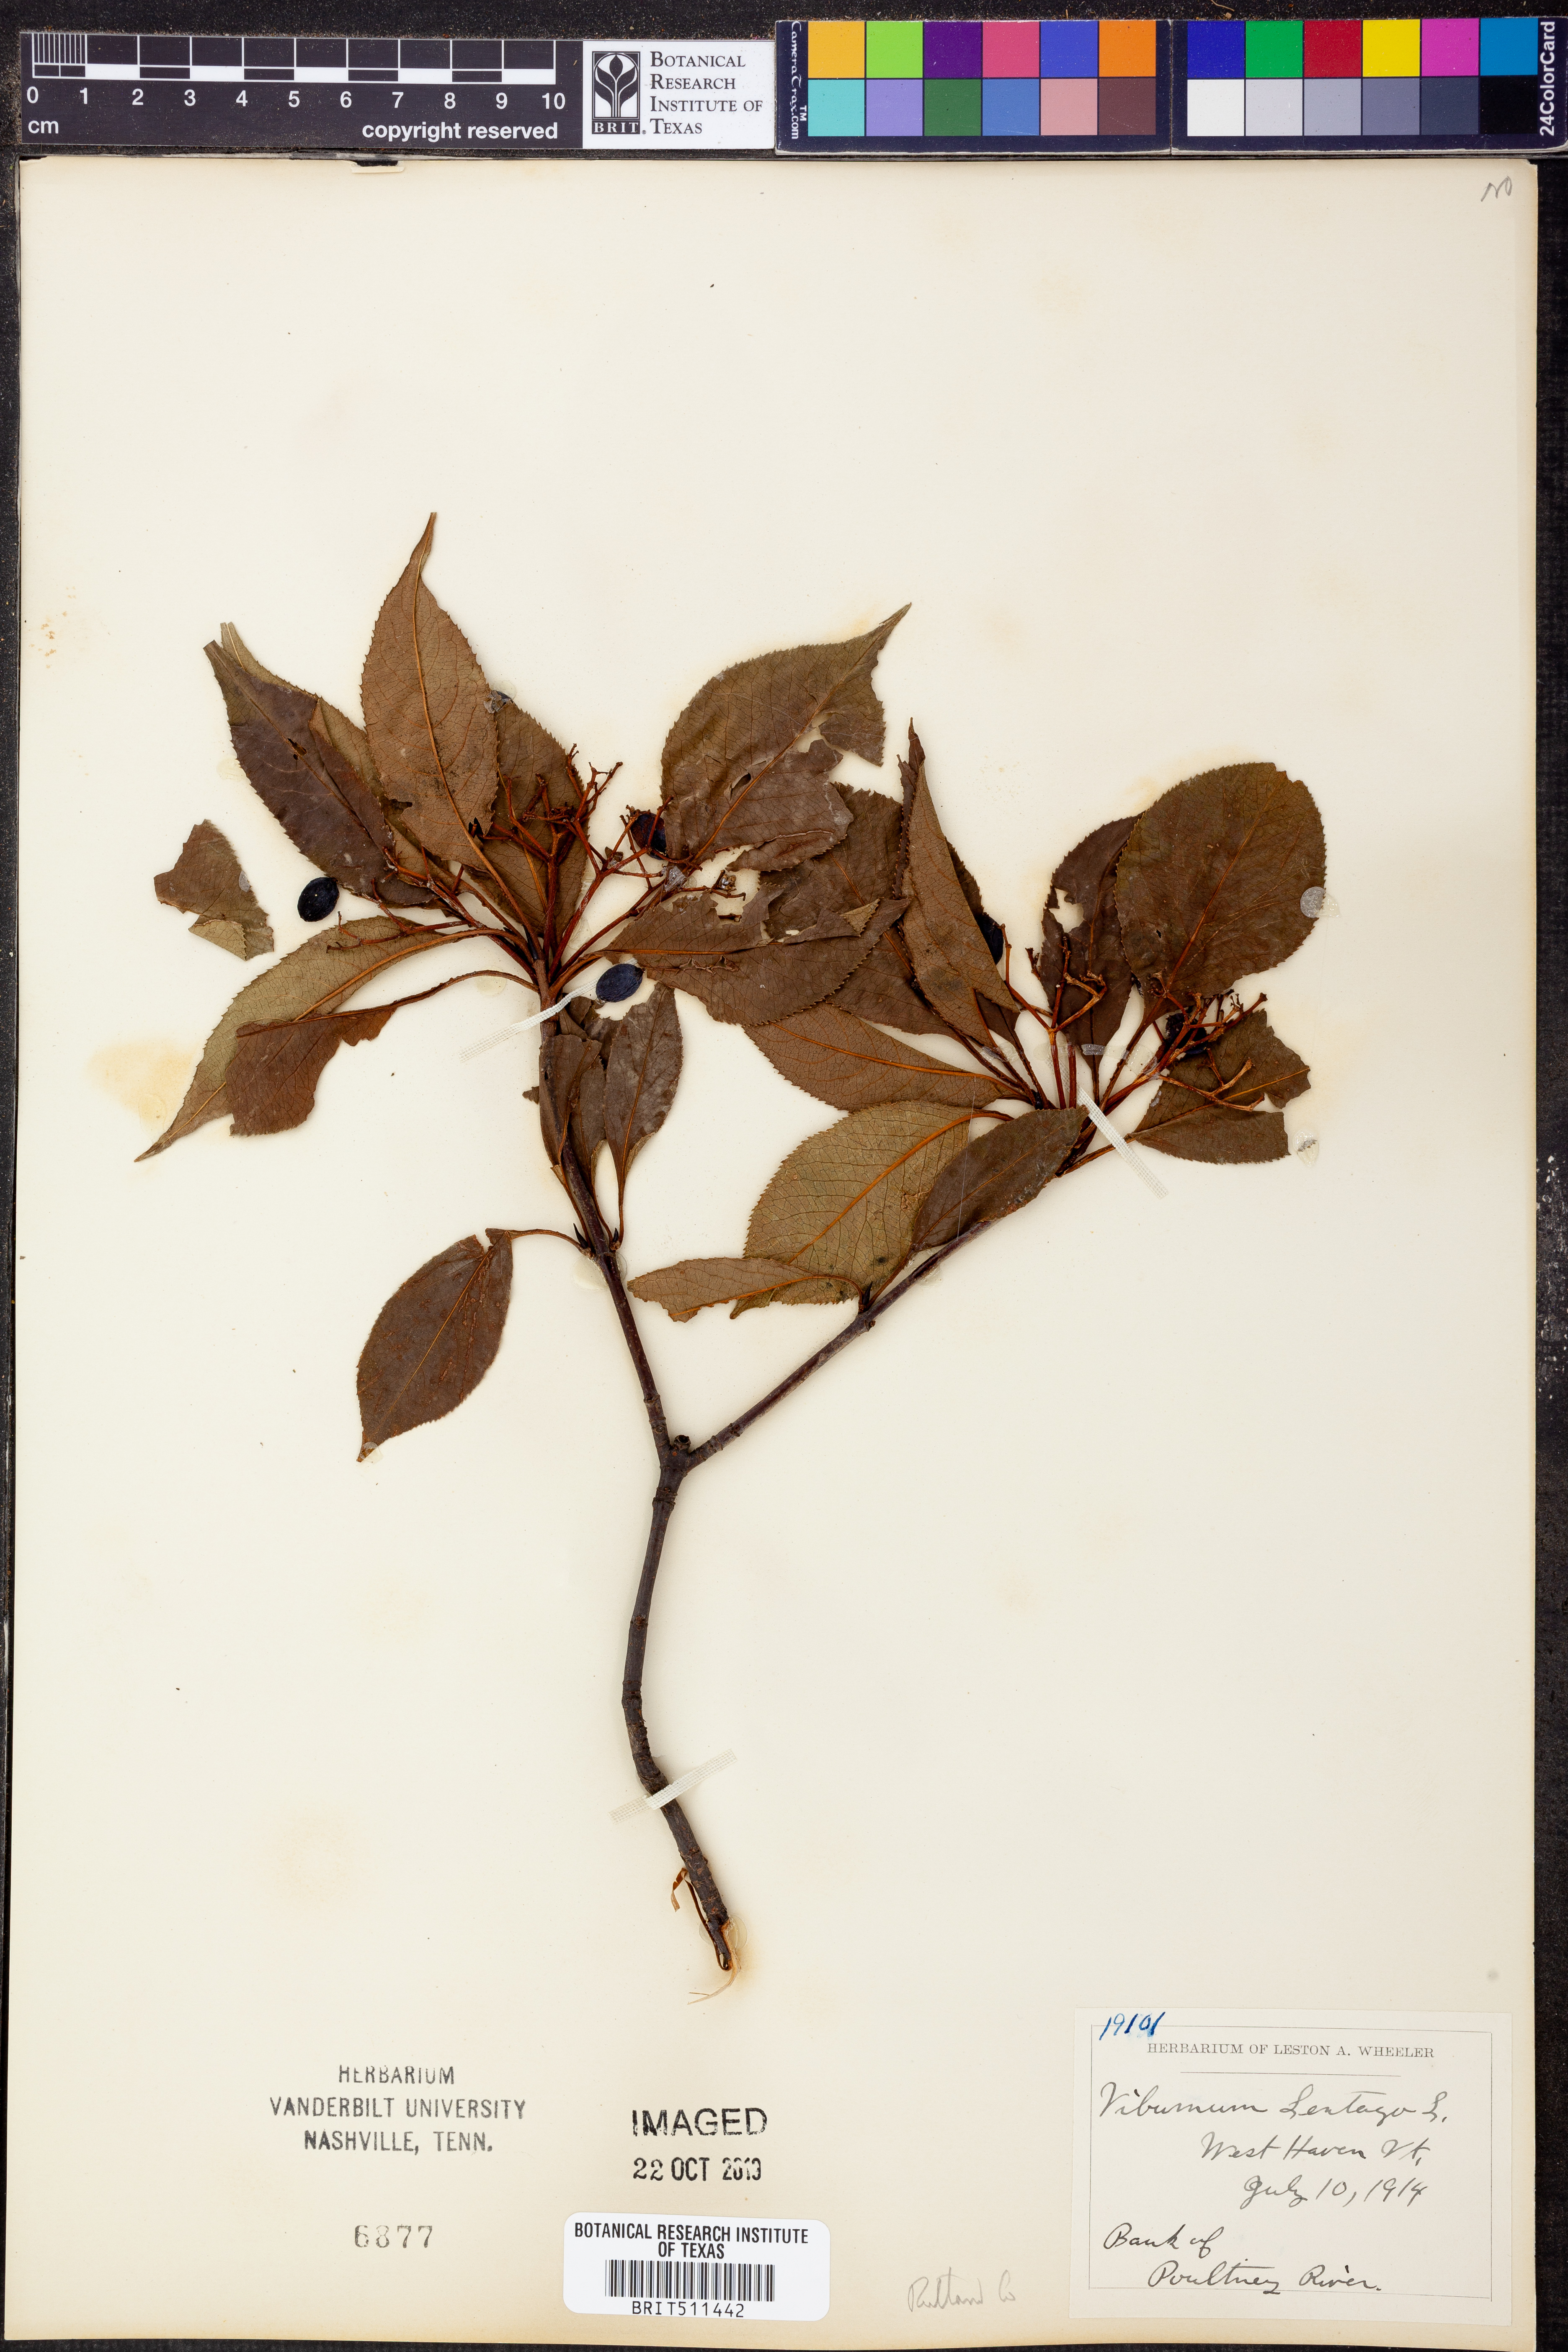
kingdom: Plantae
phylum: Tracheophyta
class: Magnoliopsida
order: Dipsacales
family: Viburnaceae
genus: Viburnum
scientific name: Viburnum lentago
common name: Black haw
